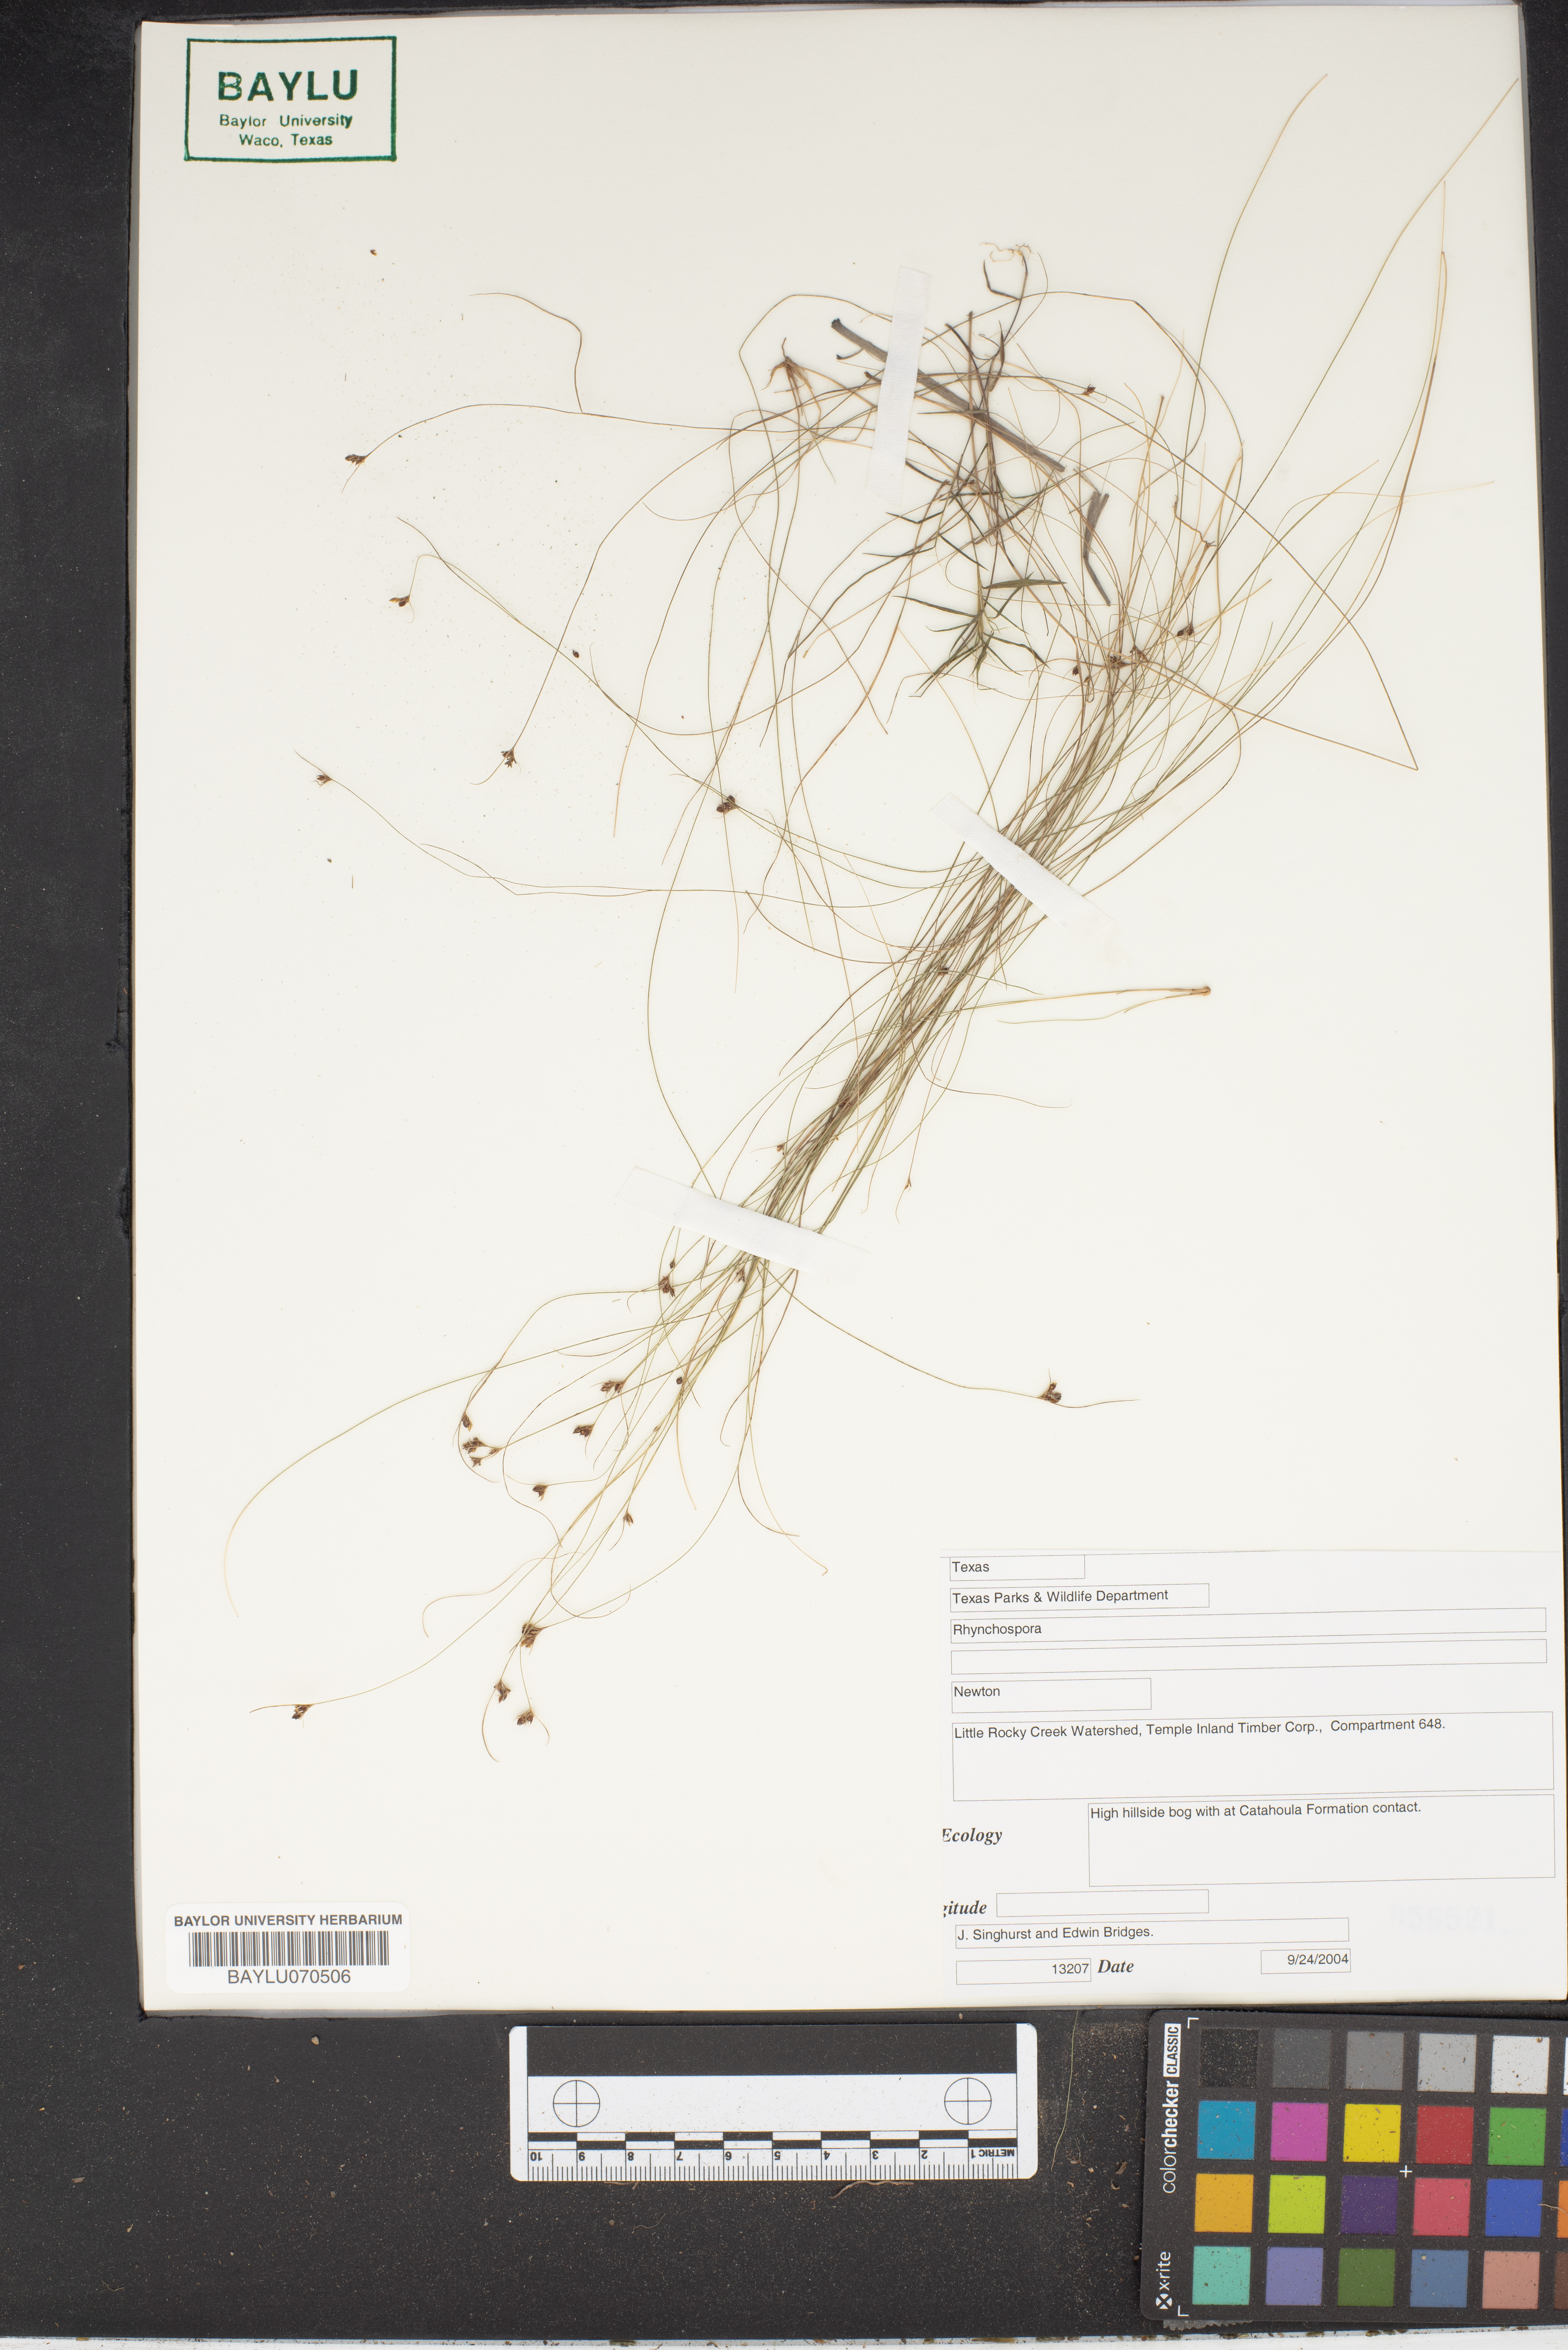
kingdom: Plantae
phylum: Tracheophyta
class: Liliopsida
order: Poales
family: Cyperaceae
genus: Rhynchospora
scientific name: Rhynchospora
